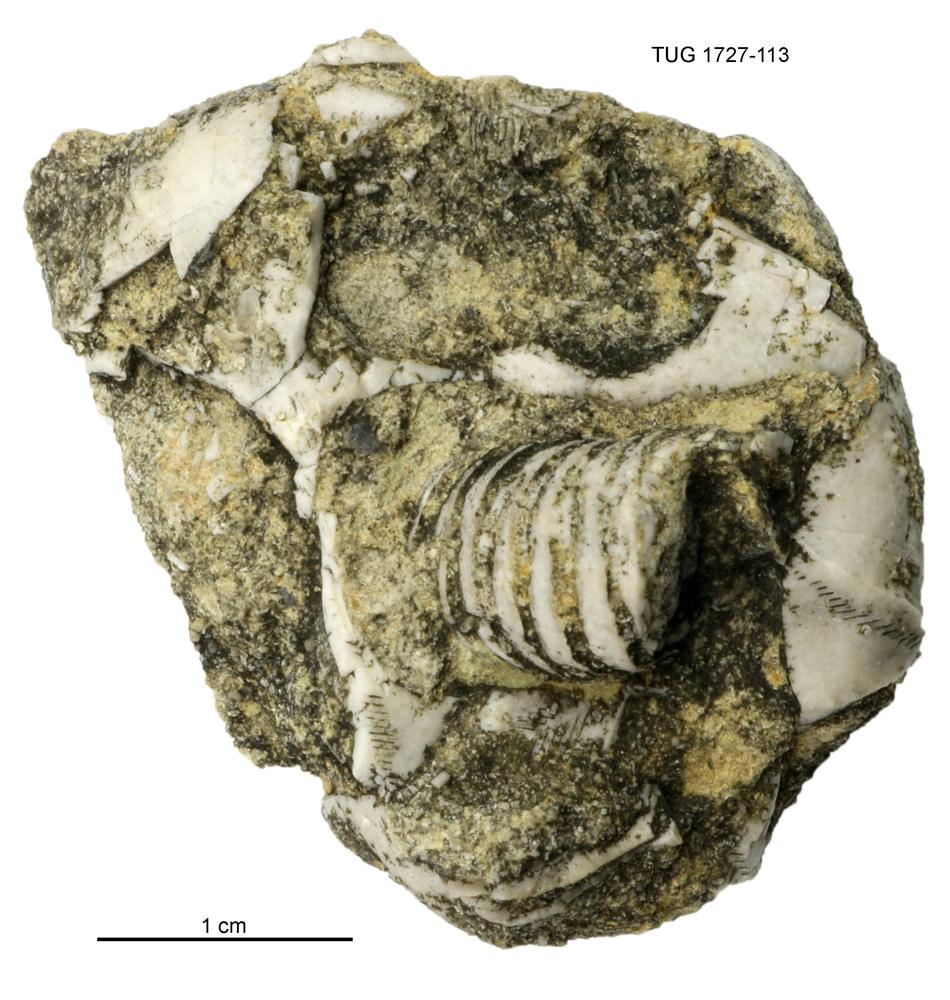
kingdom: Animalia
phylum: Echinodermata
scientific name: Echinodermata
